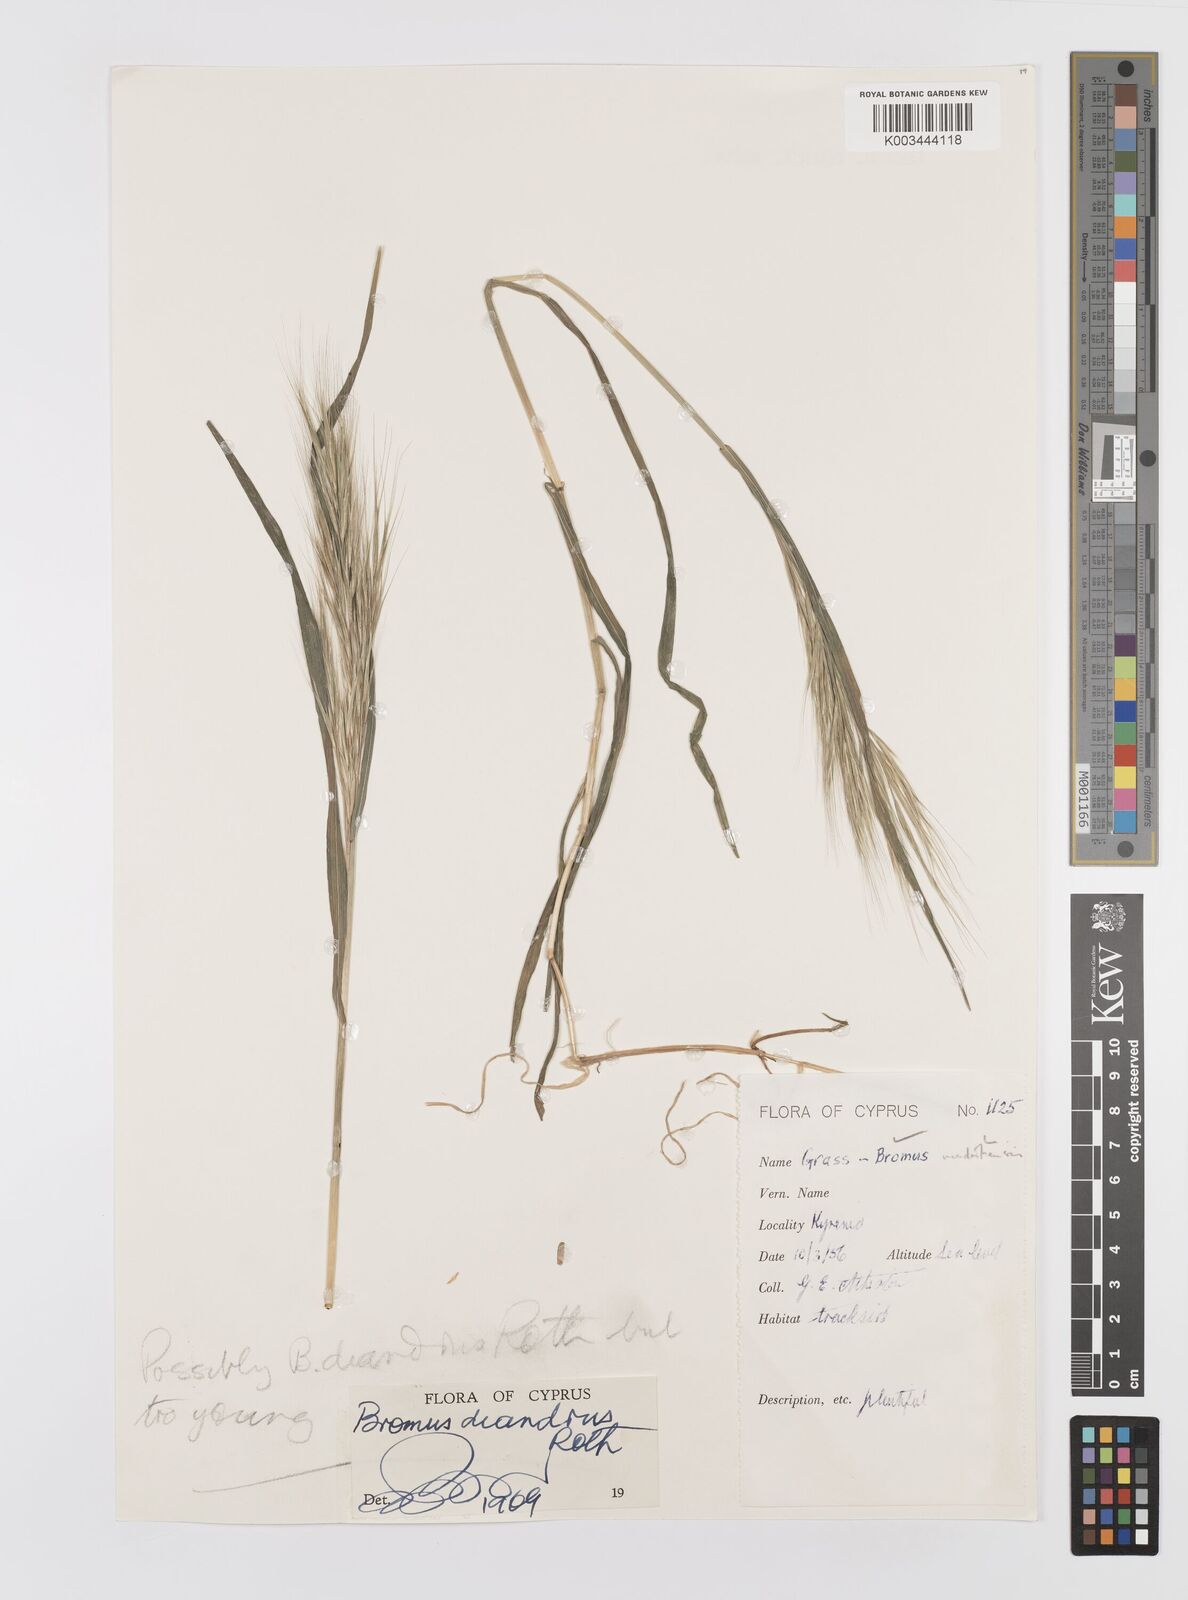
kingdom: Plantae
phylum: Tracheophyta
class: Liliopsida
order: Poales
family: Poaceae
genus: Bromus
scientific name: Bromus madritensis
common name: Compact brome
